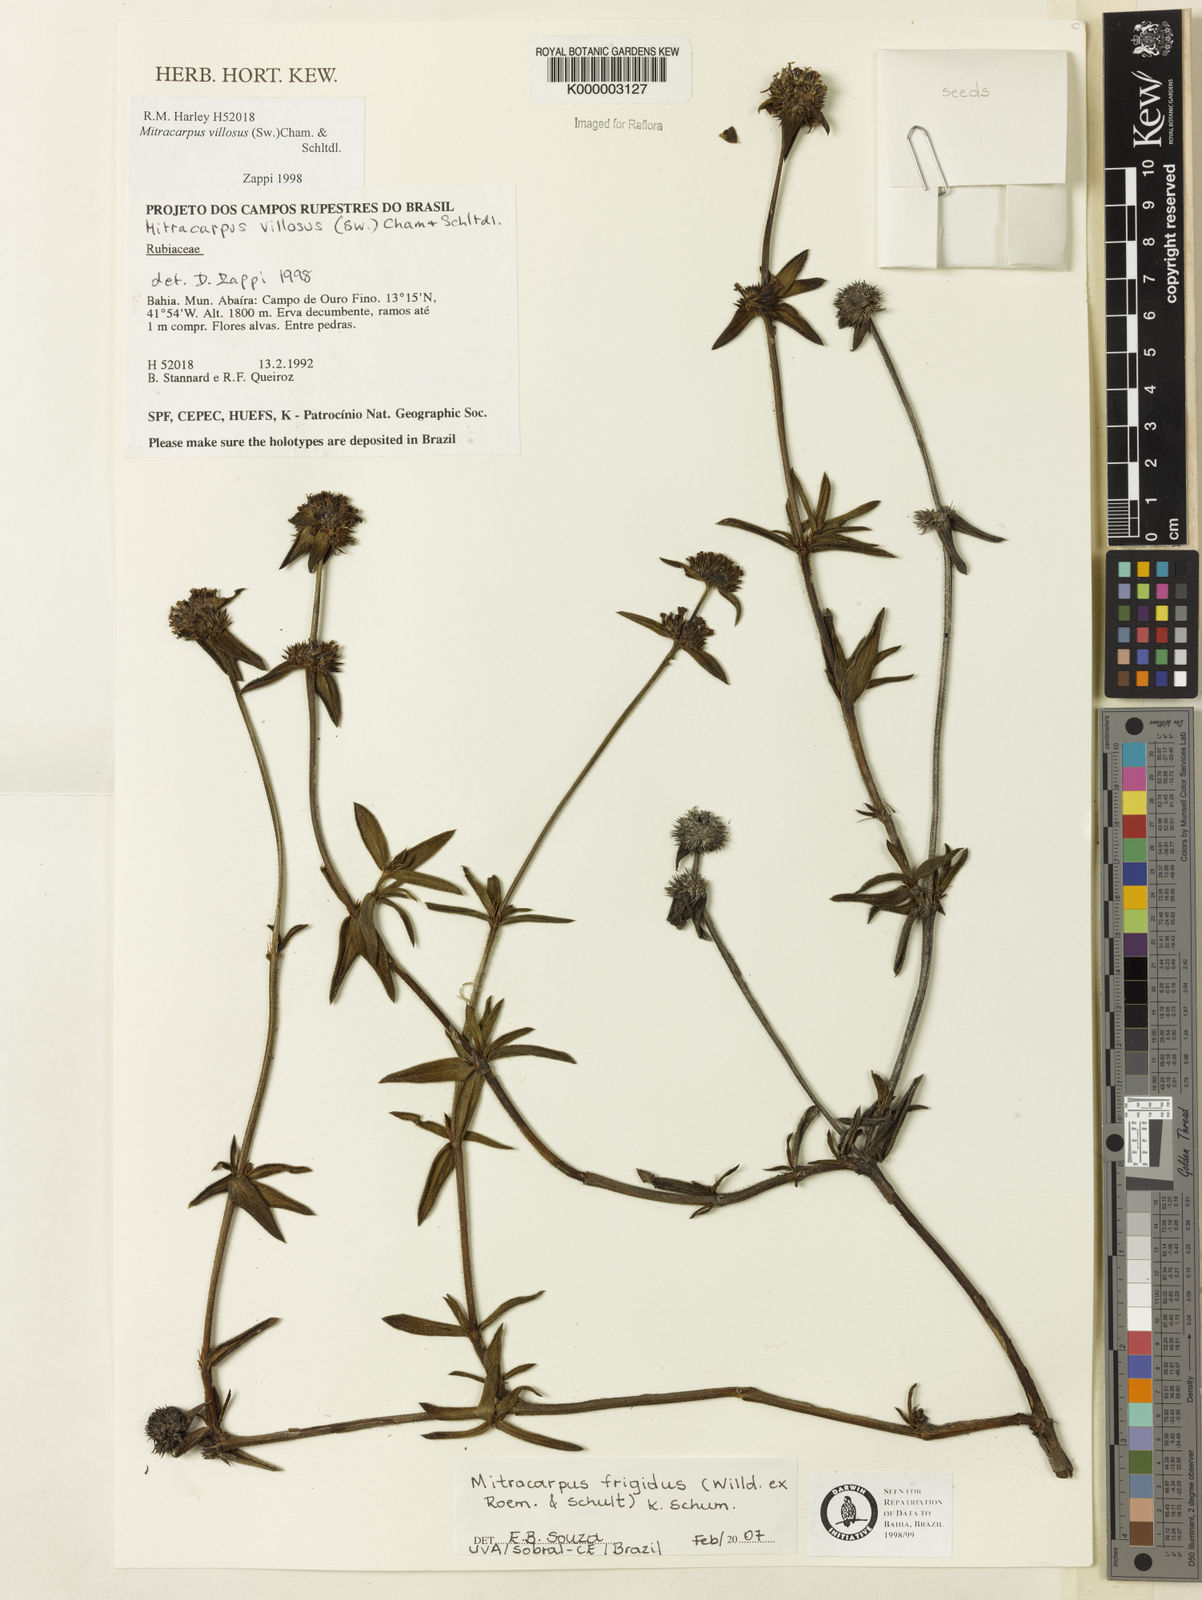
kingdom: Plantae
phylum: Tracheophyta
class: Magnoliopsida
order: Gentianales
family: Rubiaceae
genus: Mitracarpus
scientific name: Mitracarpus frigidus
